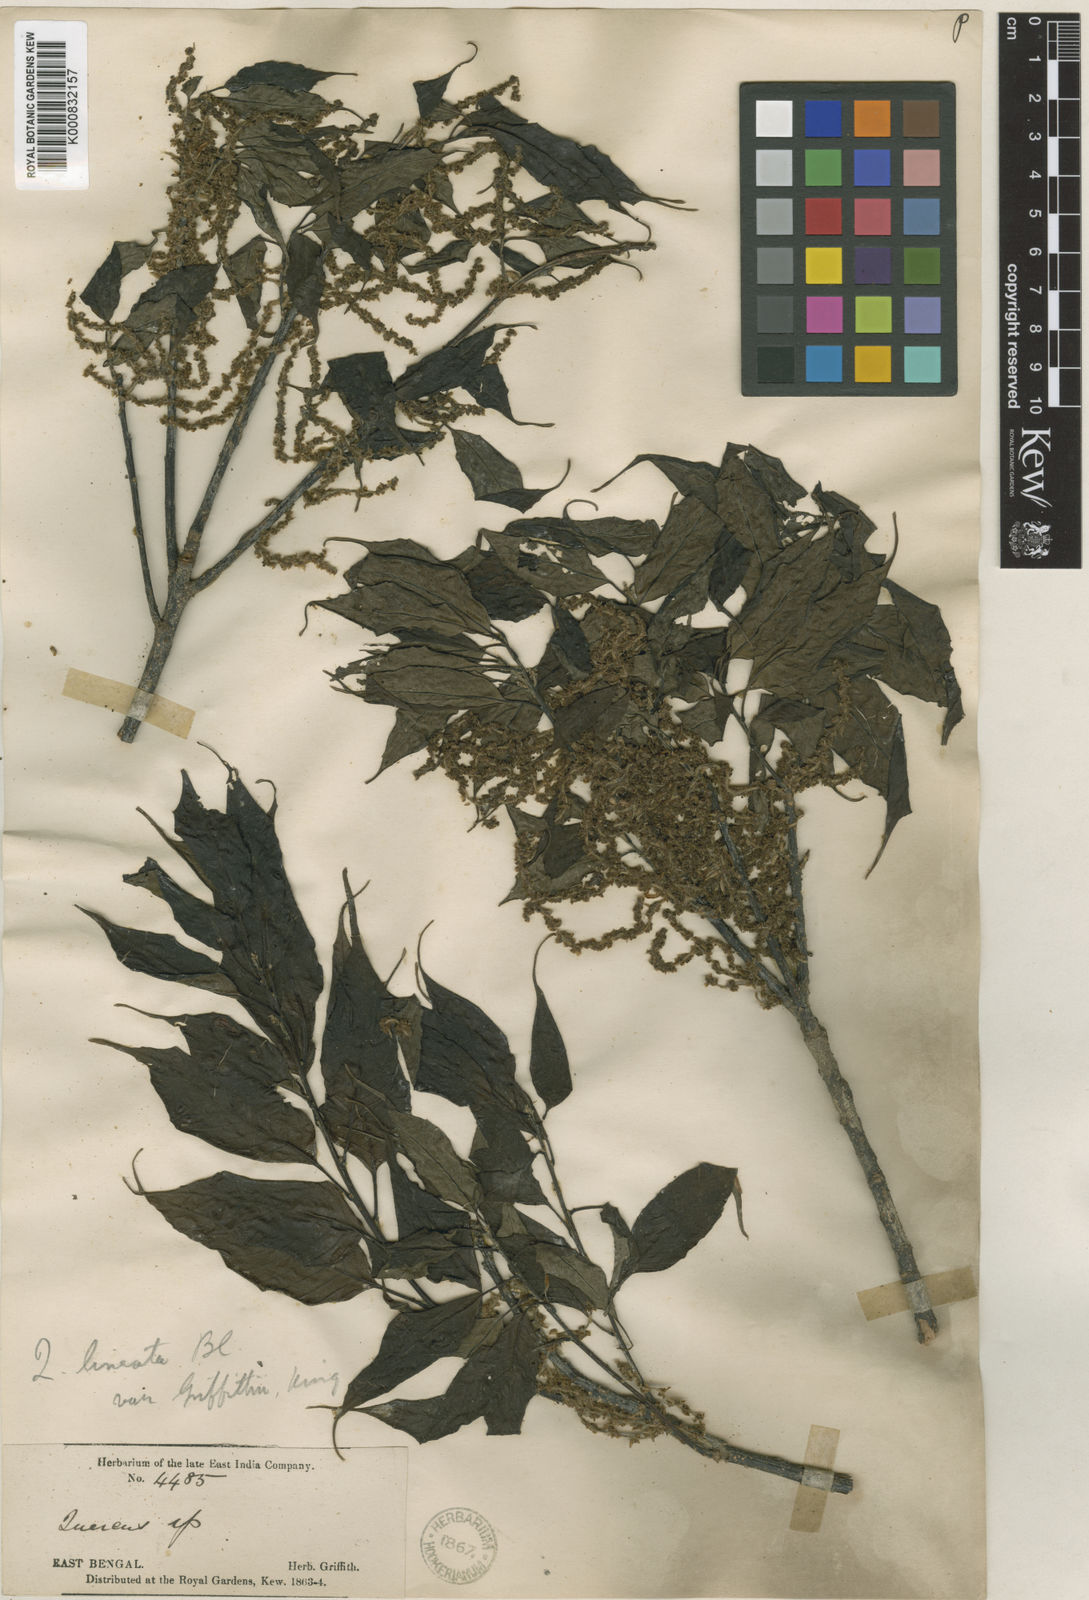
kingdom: Plantae
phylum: Tracheophyta
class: Magnoliopsida
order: Fagales
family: Fagaceae
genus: Quercus
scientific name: Quercus lineata
